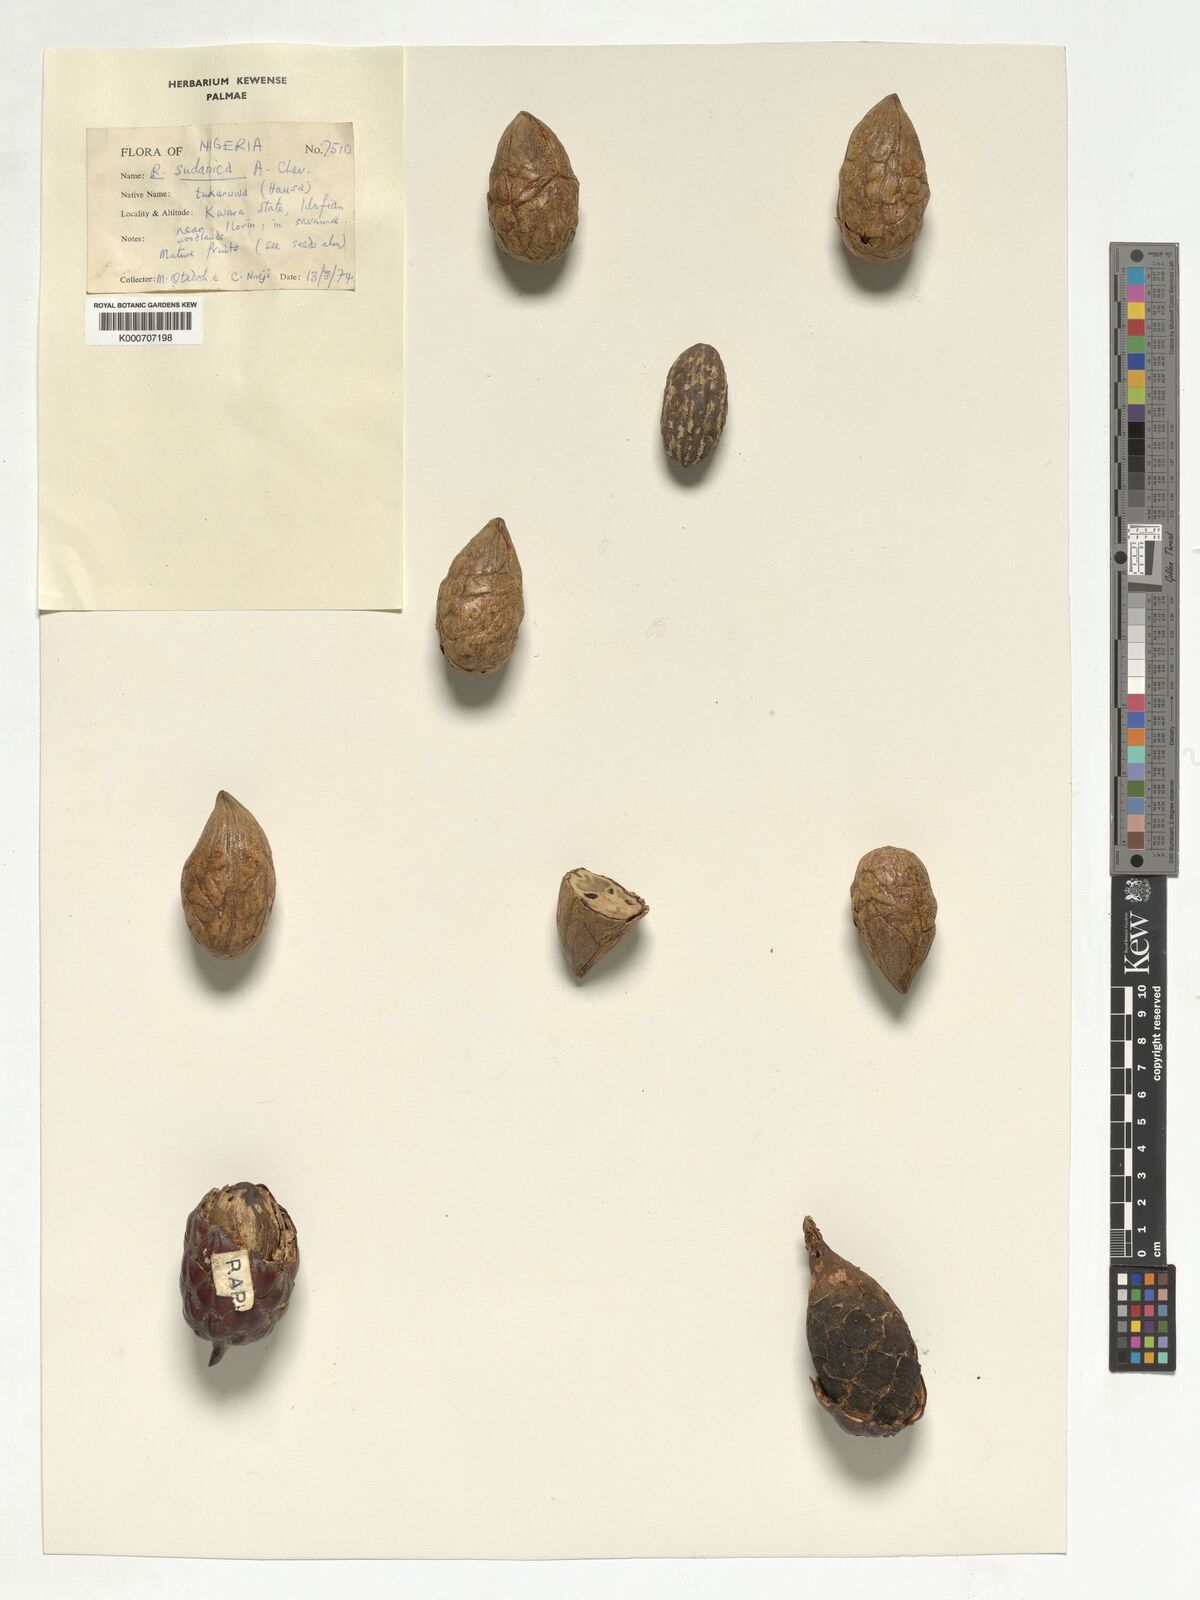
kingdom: Plantae
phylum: Tracheophyta
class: Liliopsida
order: Arecales
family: Arecaceae
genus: Raphia
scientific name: Raphia sudanica
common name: Northern raphia
